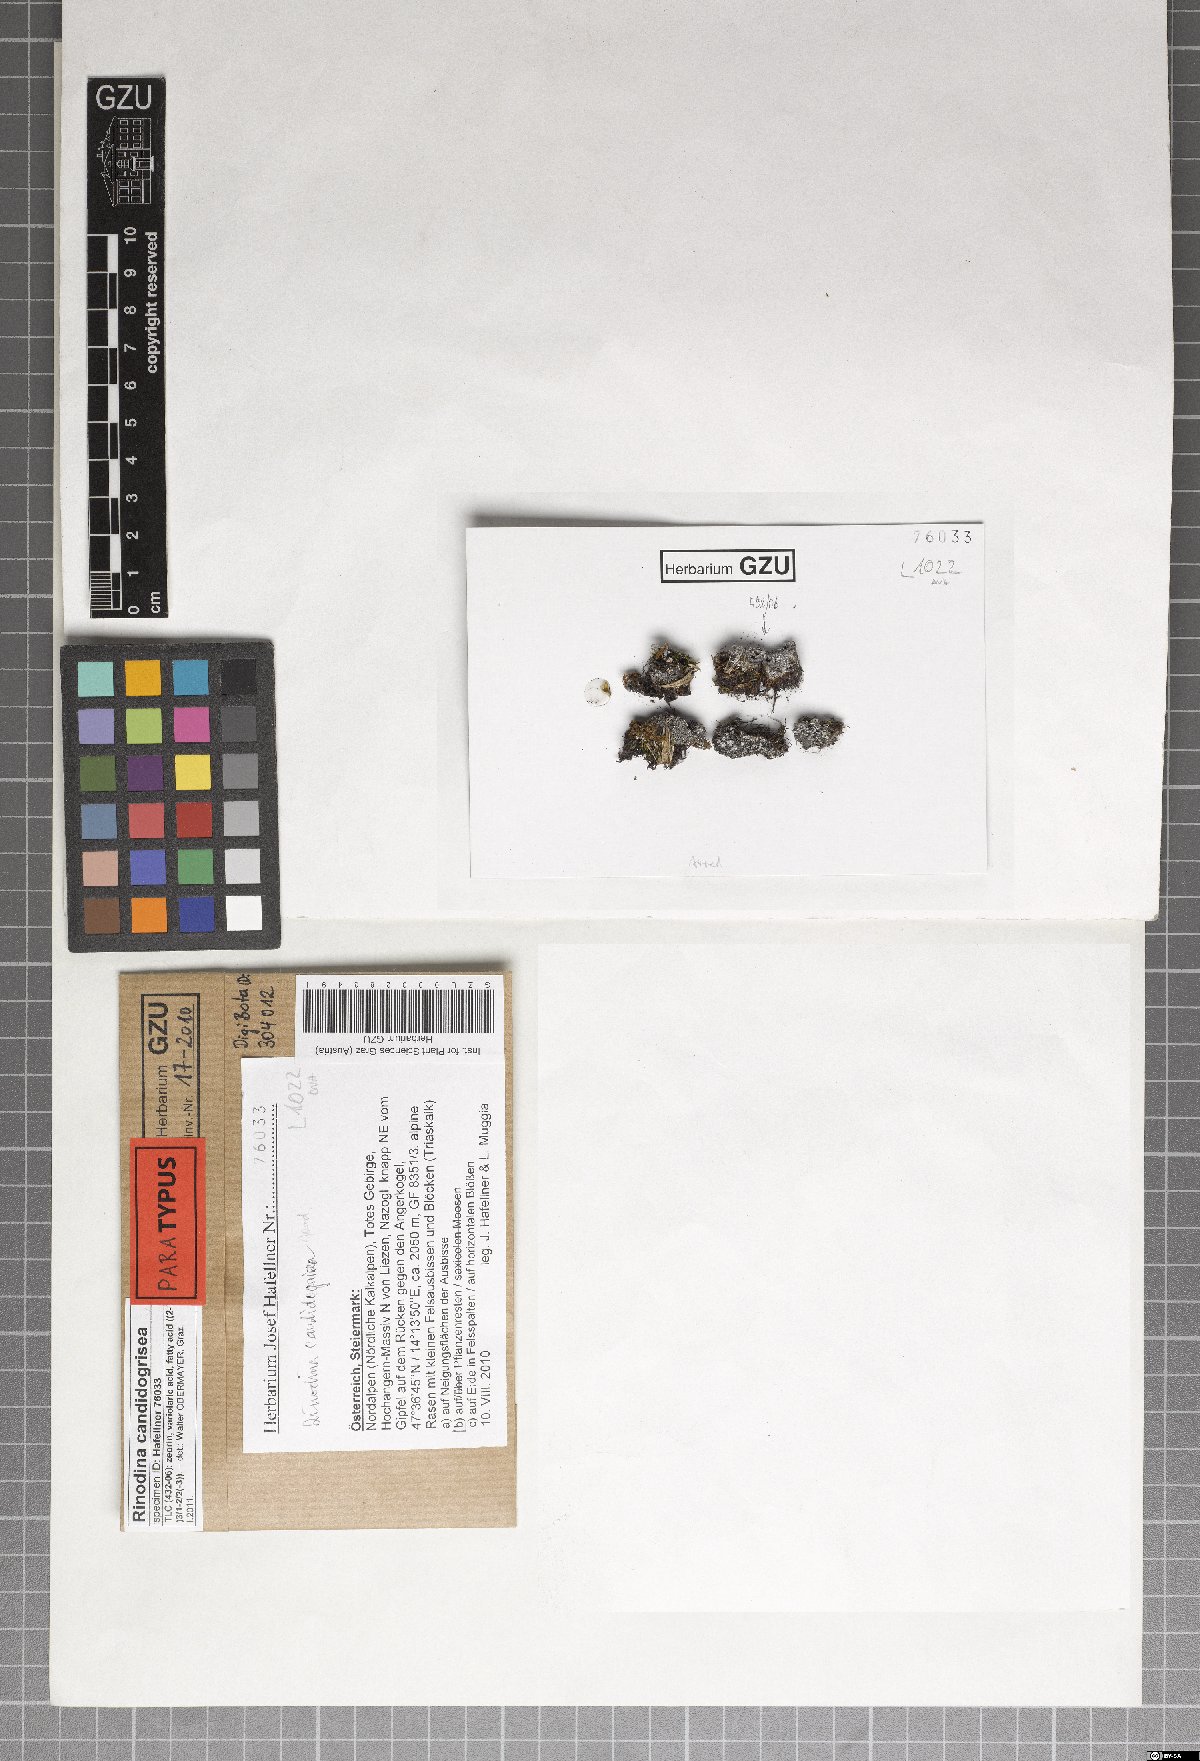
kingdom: Fungi
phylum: Ascomycota
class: Lecanoromycetes
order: Caliciales
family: Physciaceae
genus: Kudratovia
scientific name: Kudratovia candidogrisea
